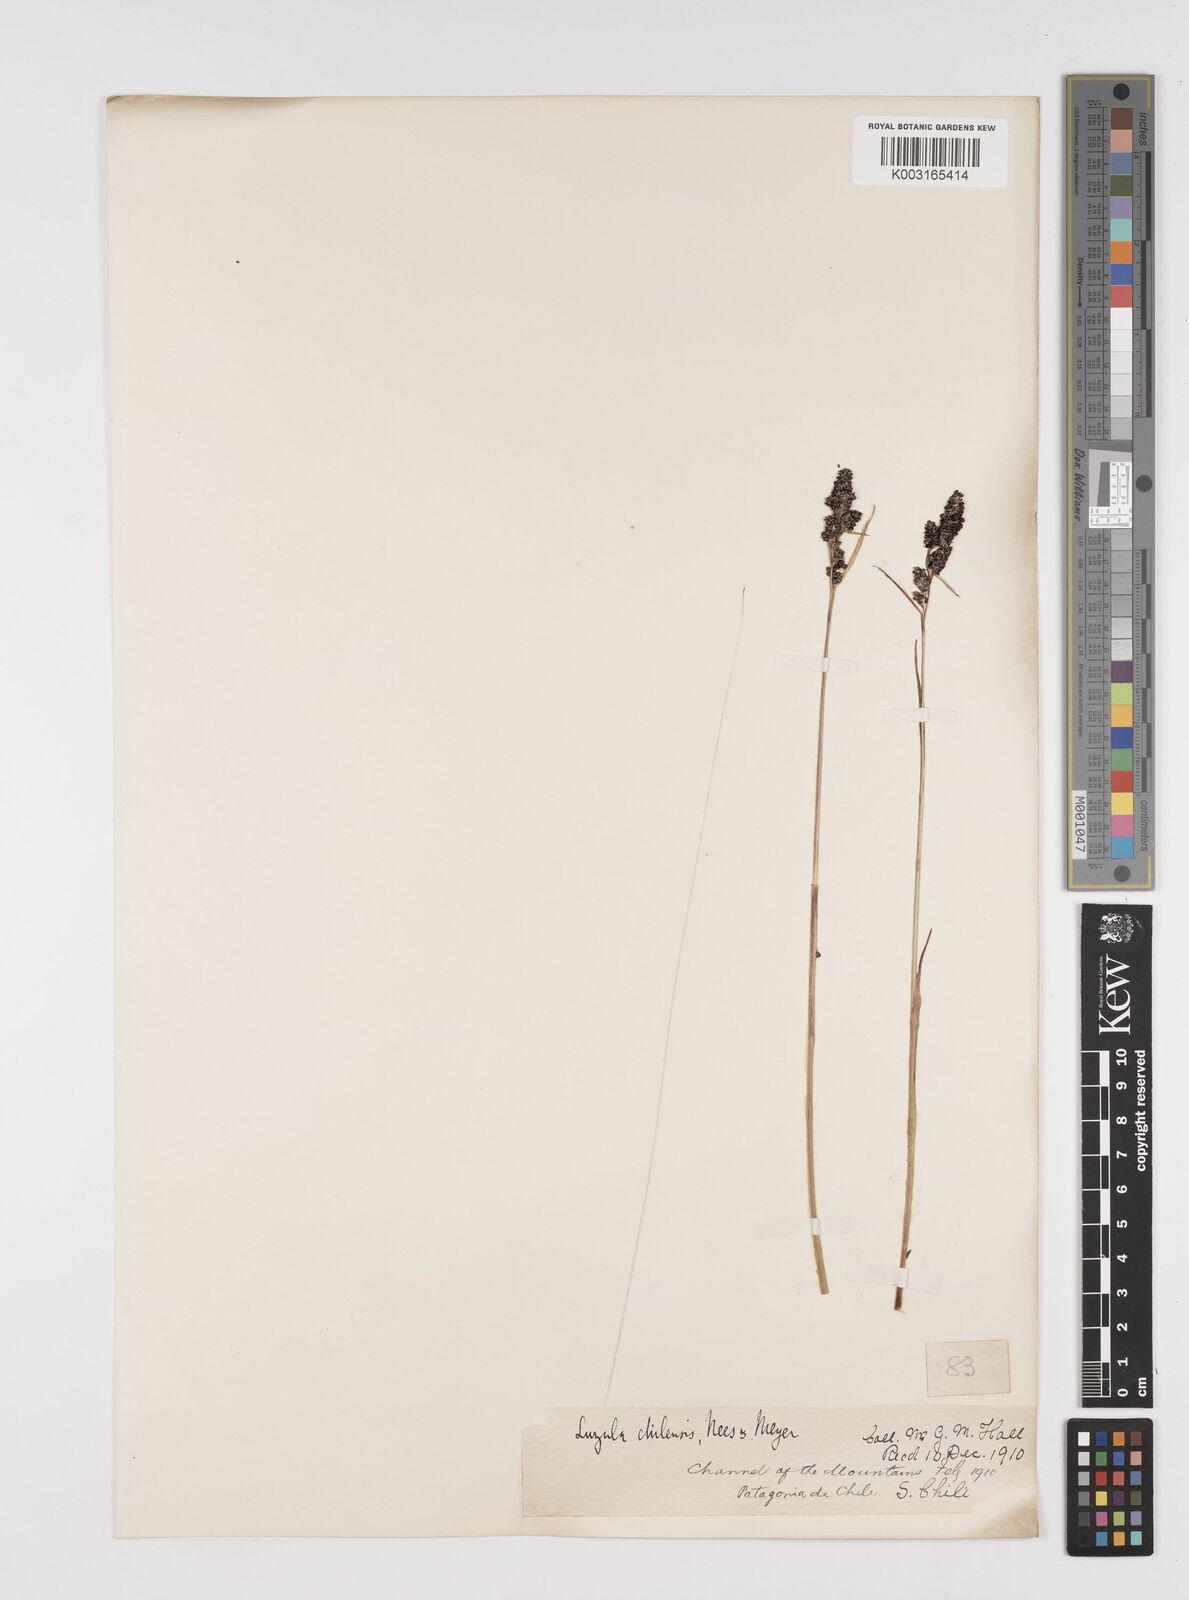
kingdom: Plantae
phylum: Tracheophyta
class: Liliopsida
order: Poales
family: Juncaceae
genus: Luzula
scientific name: Luzula racemosa
